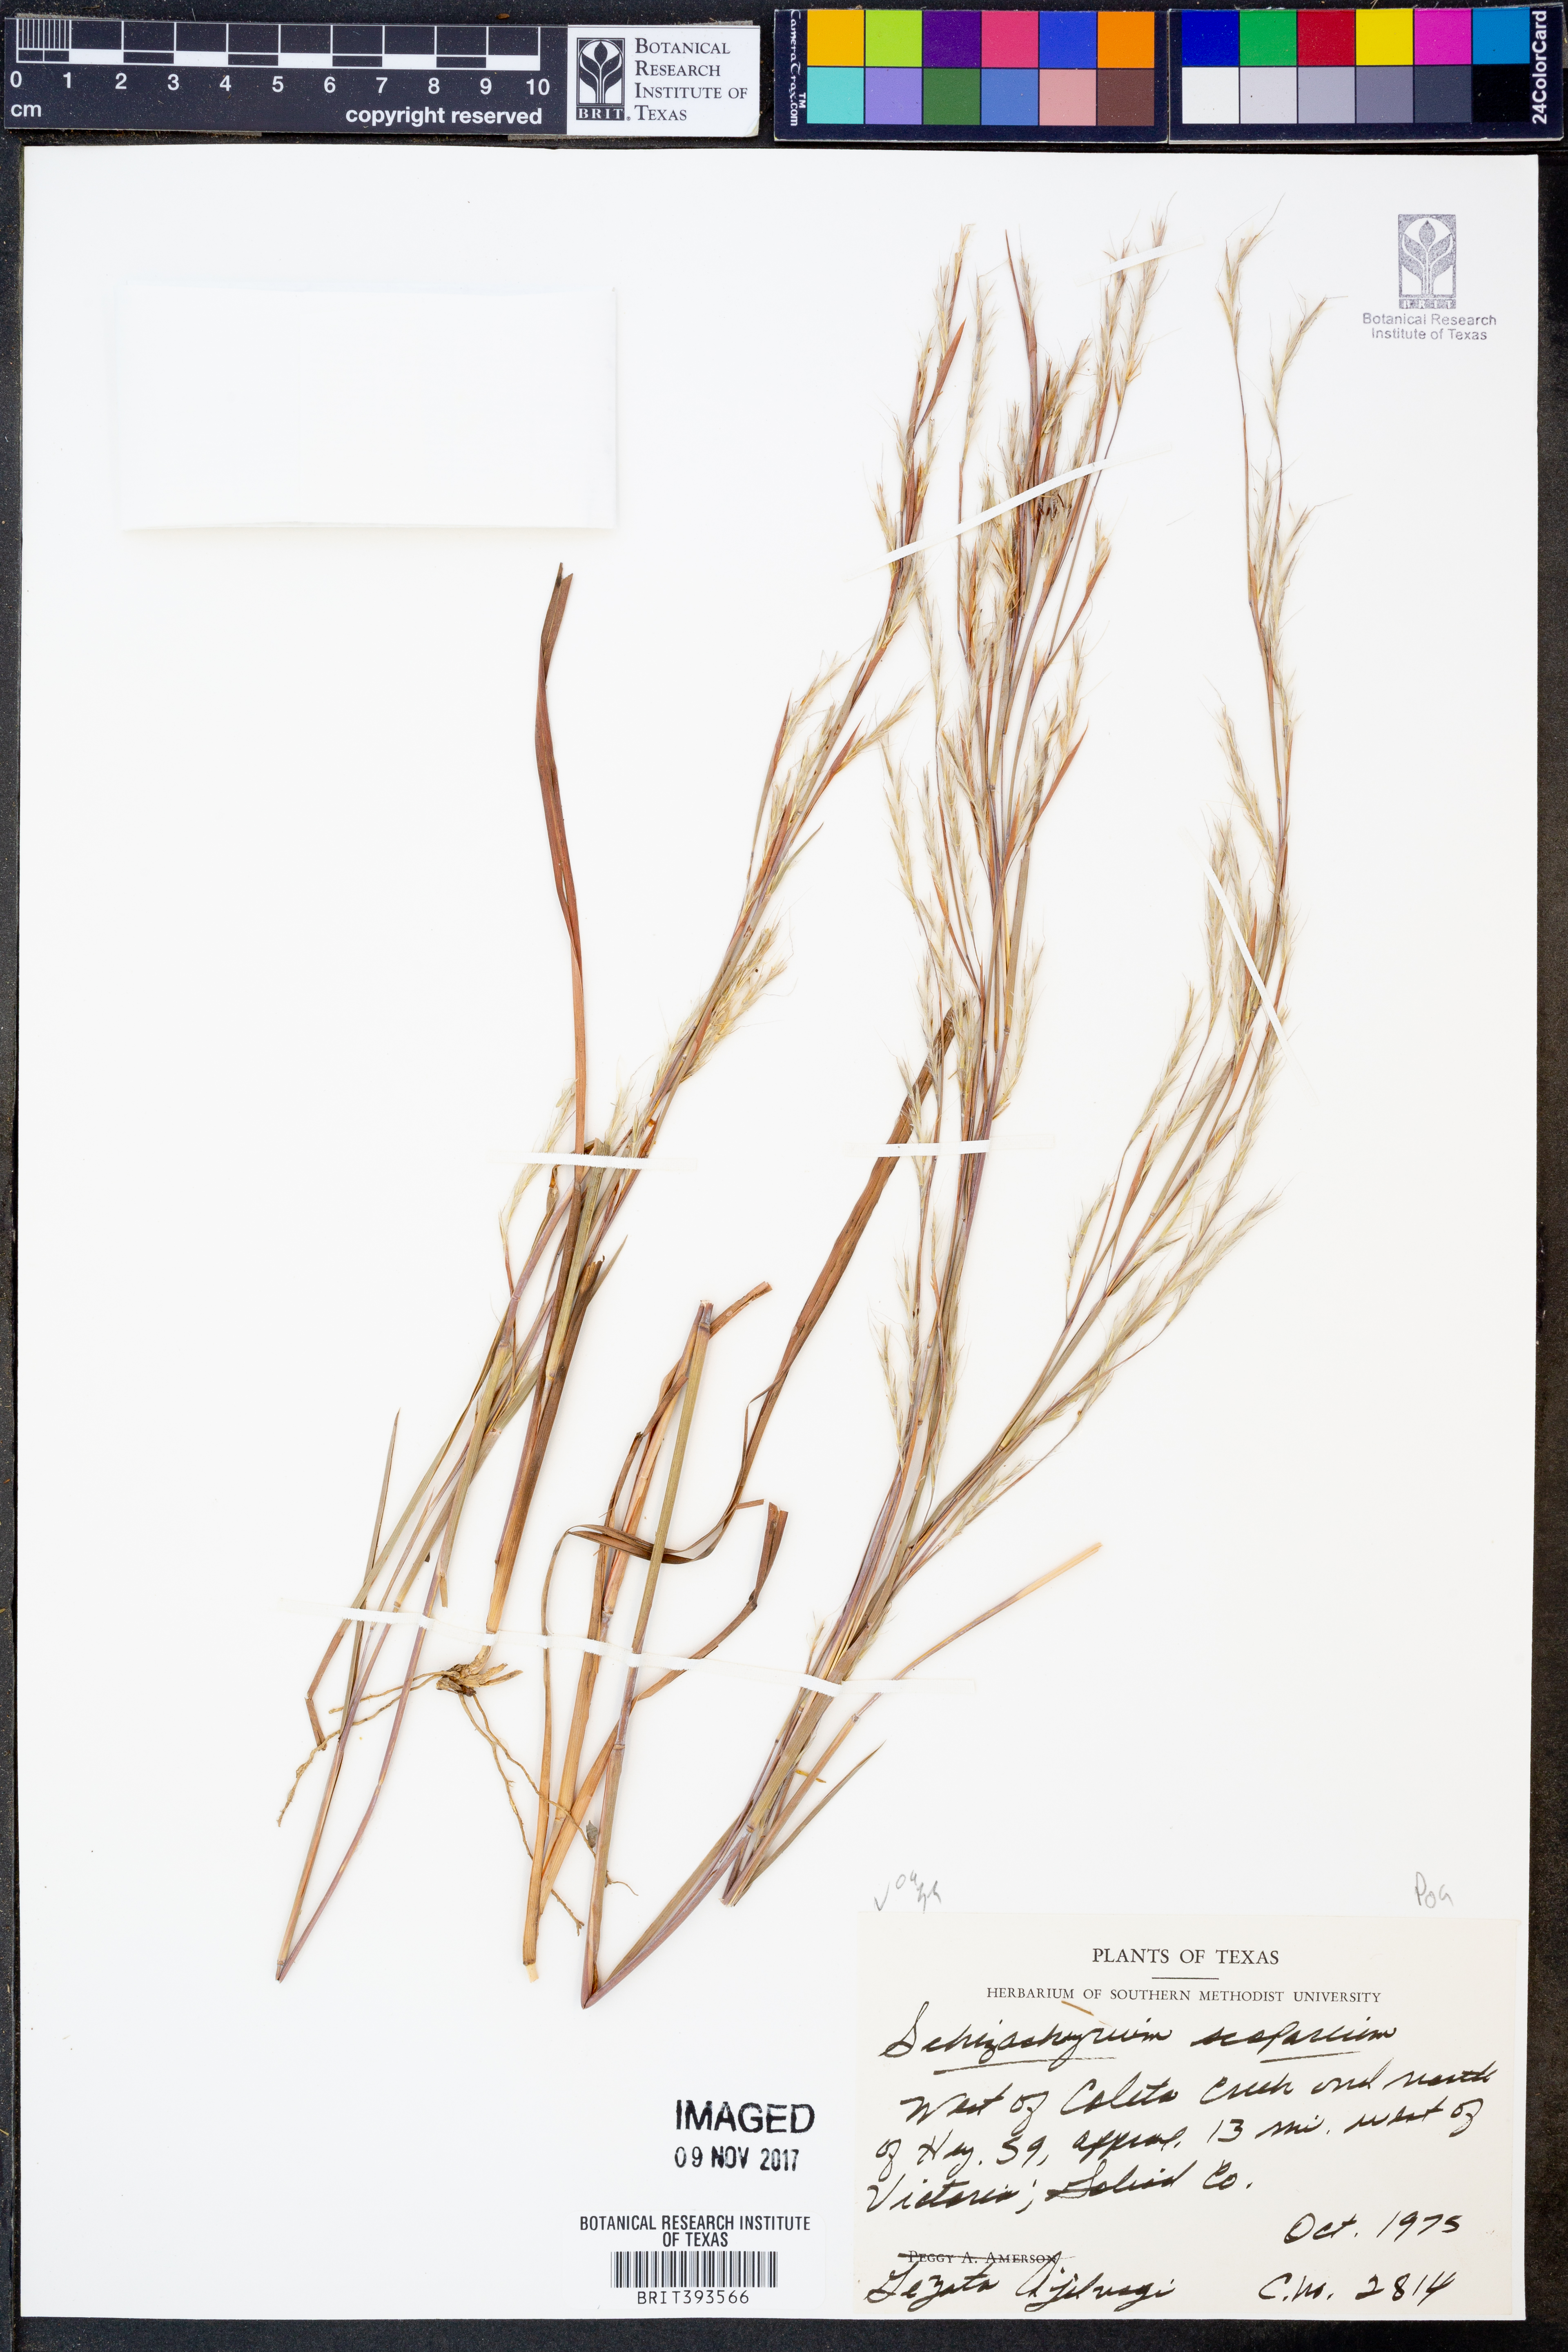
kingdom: Plantae
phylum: Tracheophyta
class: Liliopsida
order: Poales
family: Poaceae
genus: Schizachyrium
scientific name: Schizachyrium scoparium
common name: Little bluestem
